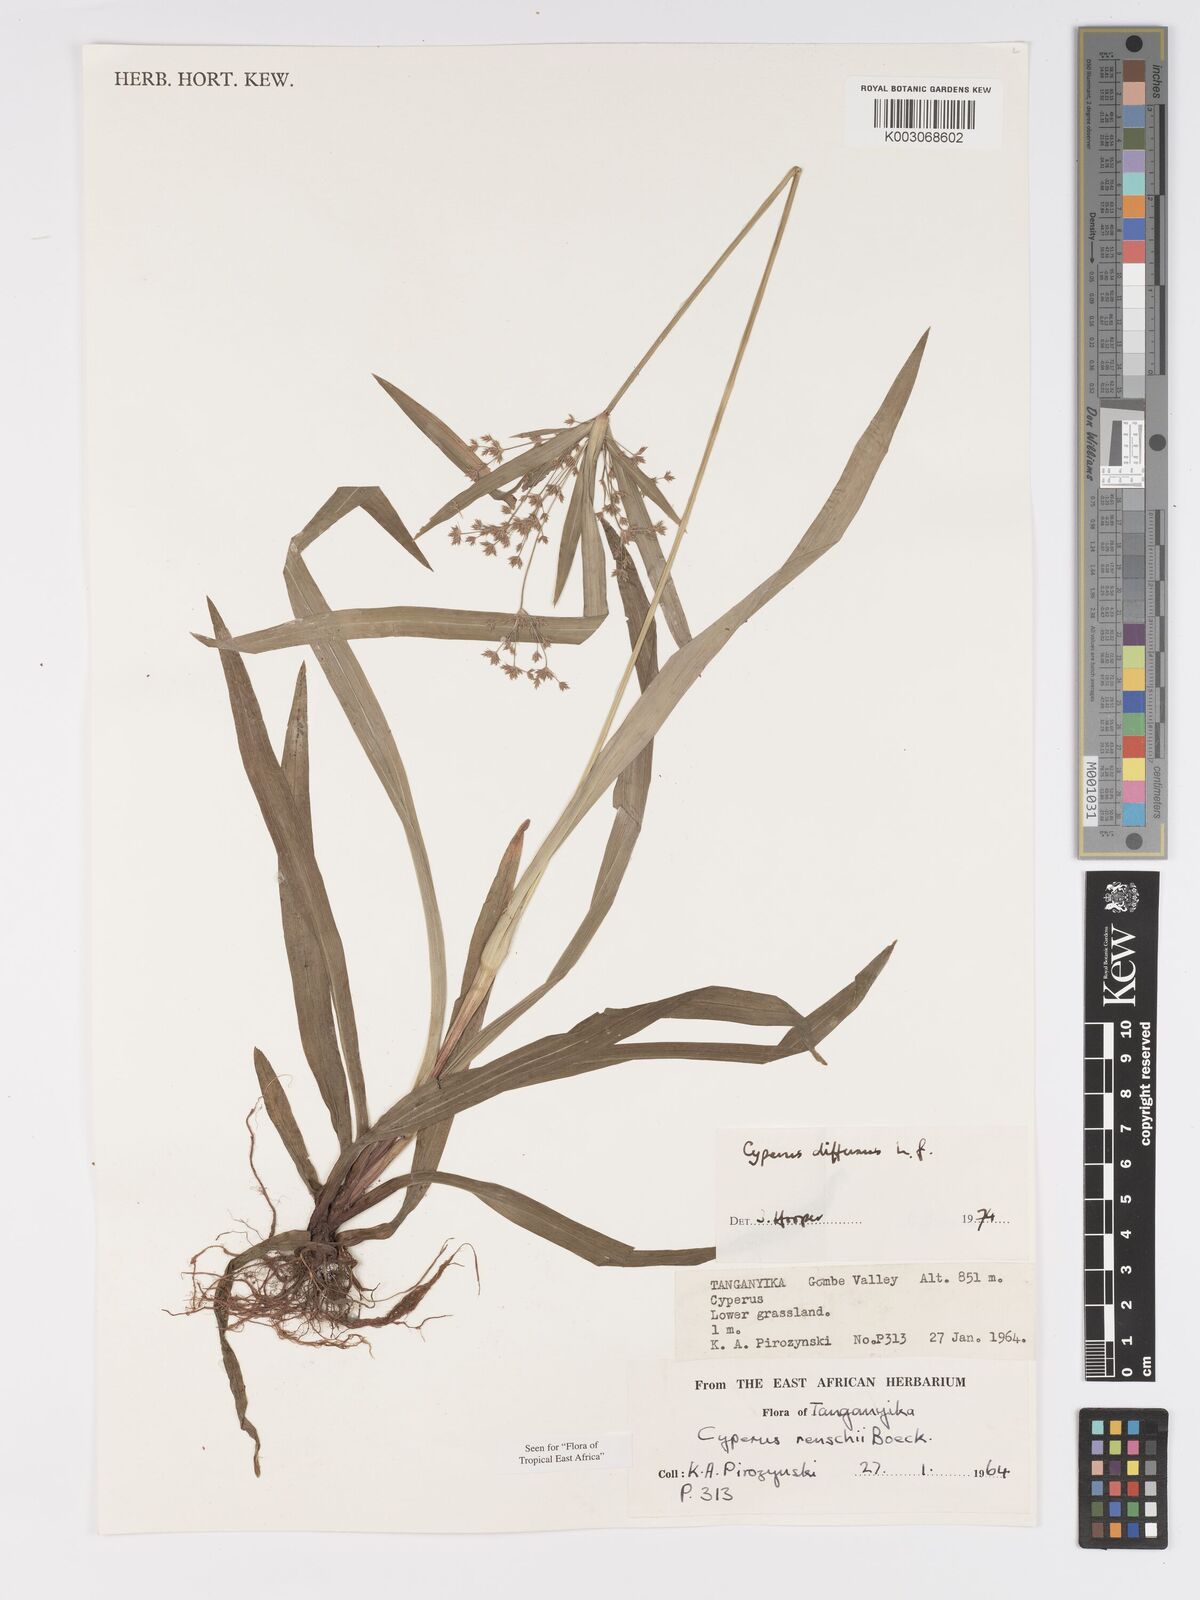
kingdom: Plantae
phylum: Tracheophyta
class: Liliopsida
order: Poales
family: Cyperaceae
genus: Cyperus
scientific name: Cyperus renschii
